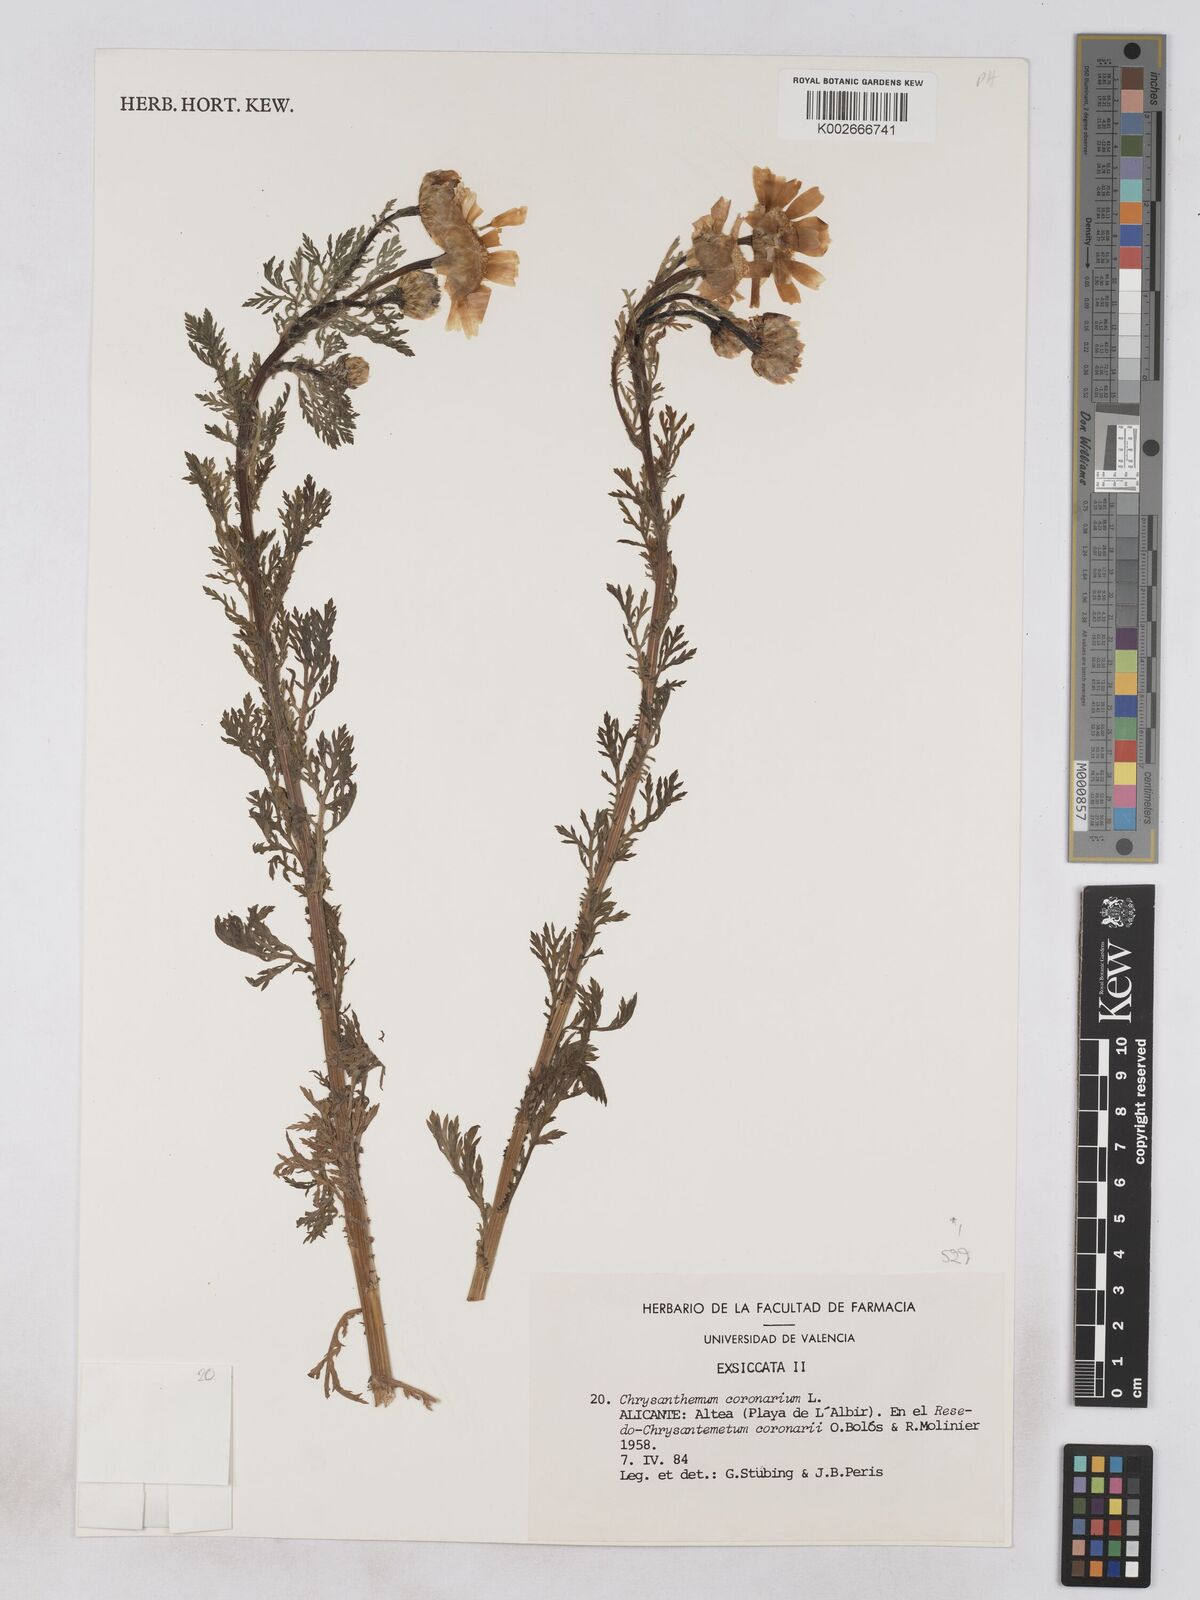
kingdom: Plantae
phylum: Tracheophyta
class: Magnoliopsida
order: Asterales
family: Asteraceae
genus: Glebionis
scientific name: Glebionis
